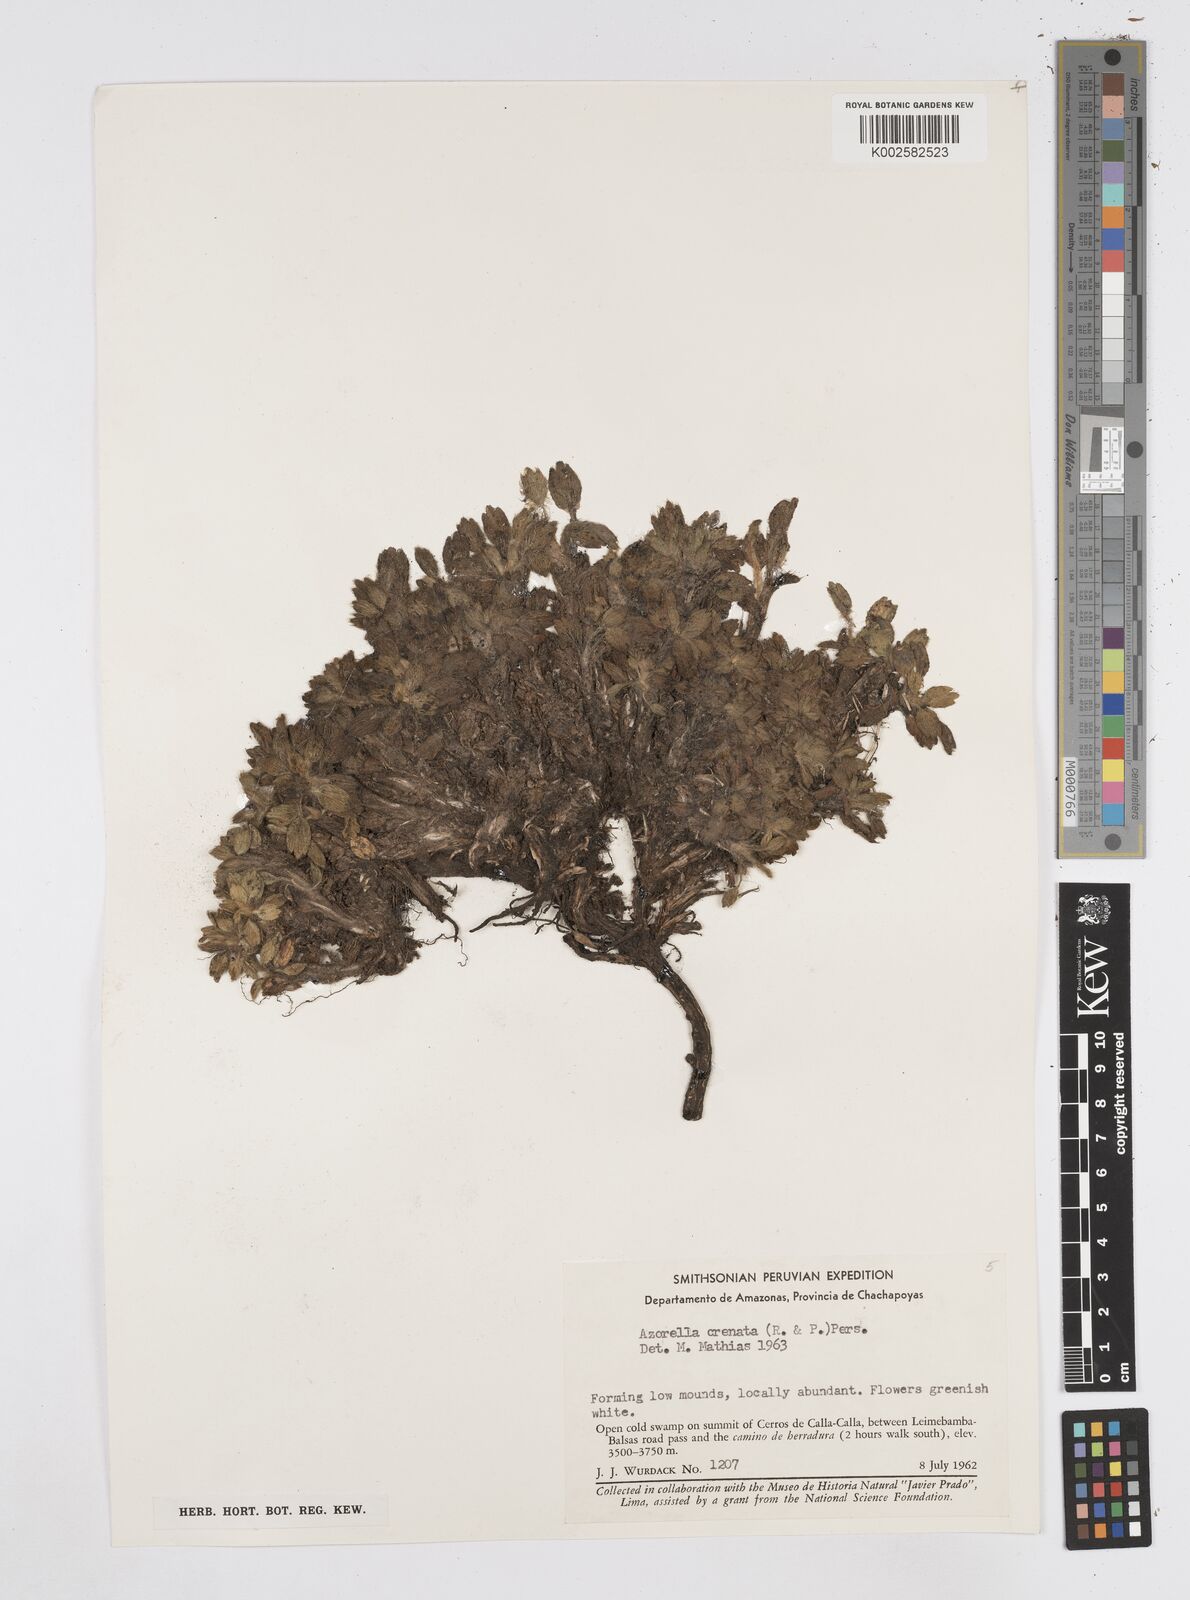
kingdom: Plantae
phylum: Tracheophyta
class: Magnoliopsida
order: Apiales
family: Apiaceae
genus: Azorella
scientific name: Azorella crenata
